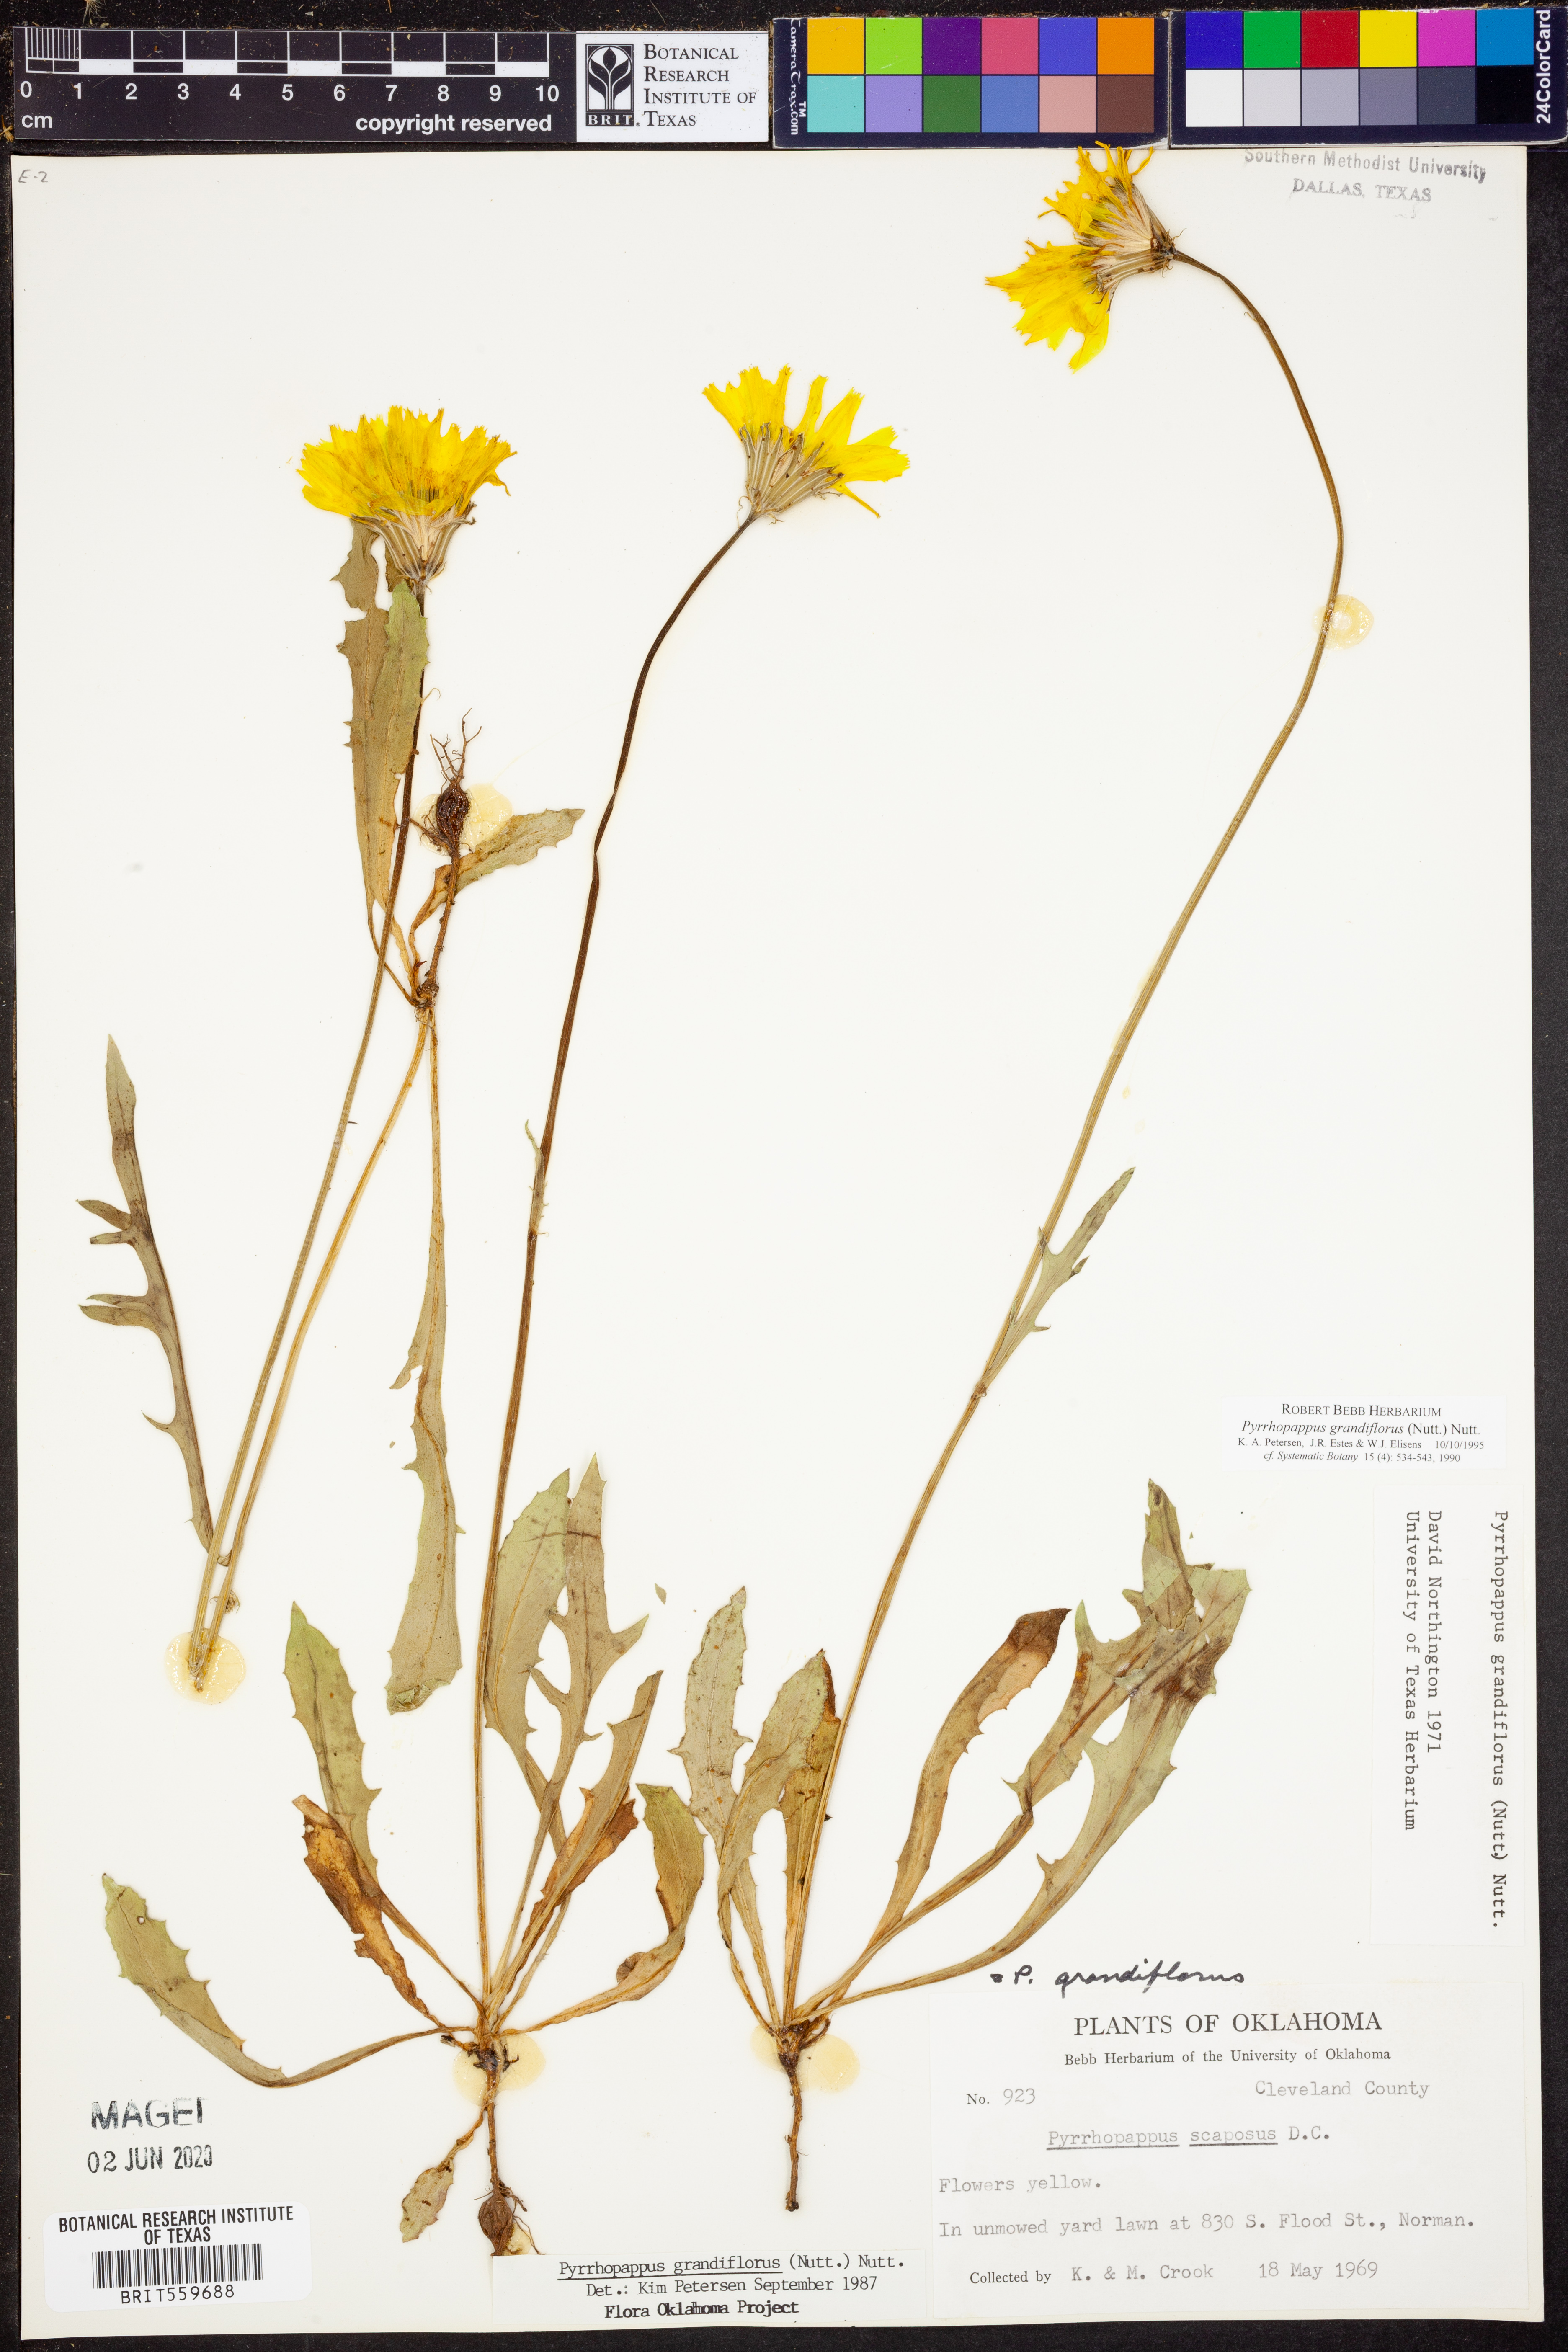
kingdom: Plantae
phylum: Tracheophyta
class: Magnoliopsida
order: Asterales
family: Asteraceae
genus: Pyrrhopappus
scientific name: Pyrrhopappus grandiflorus
